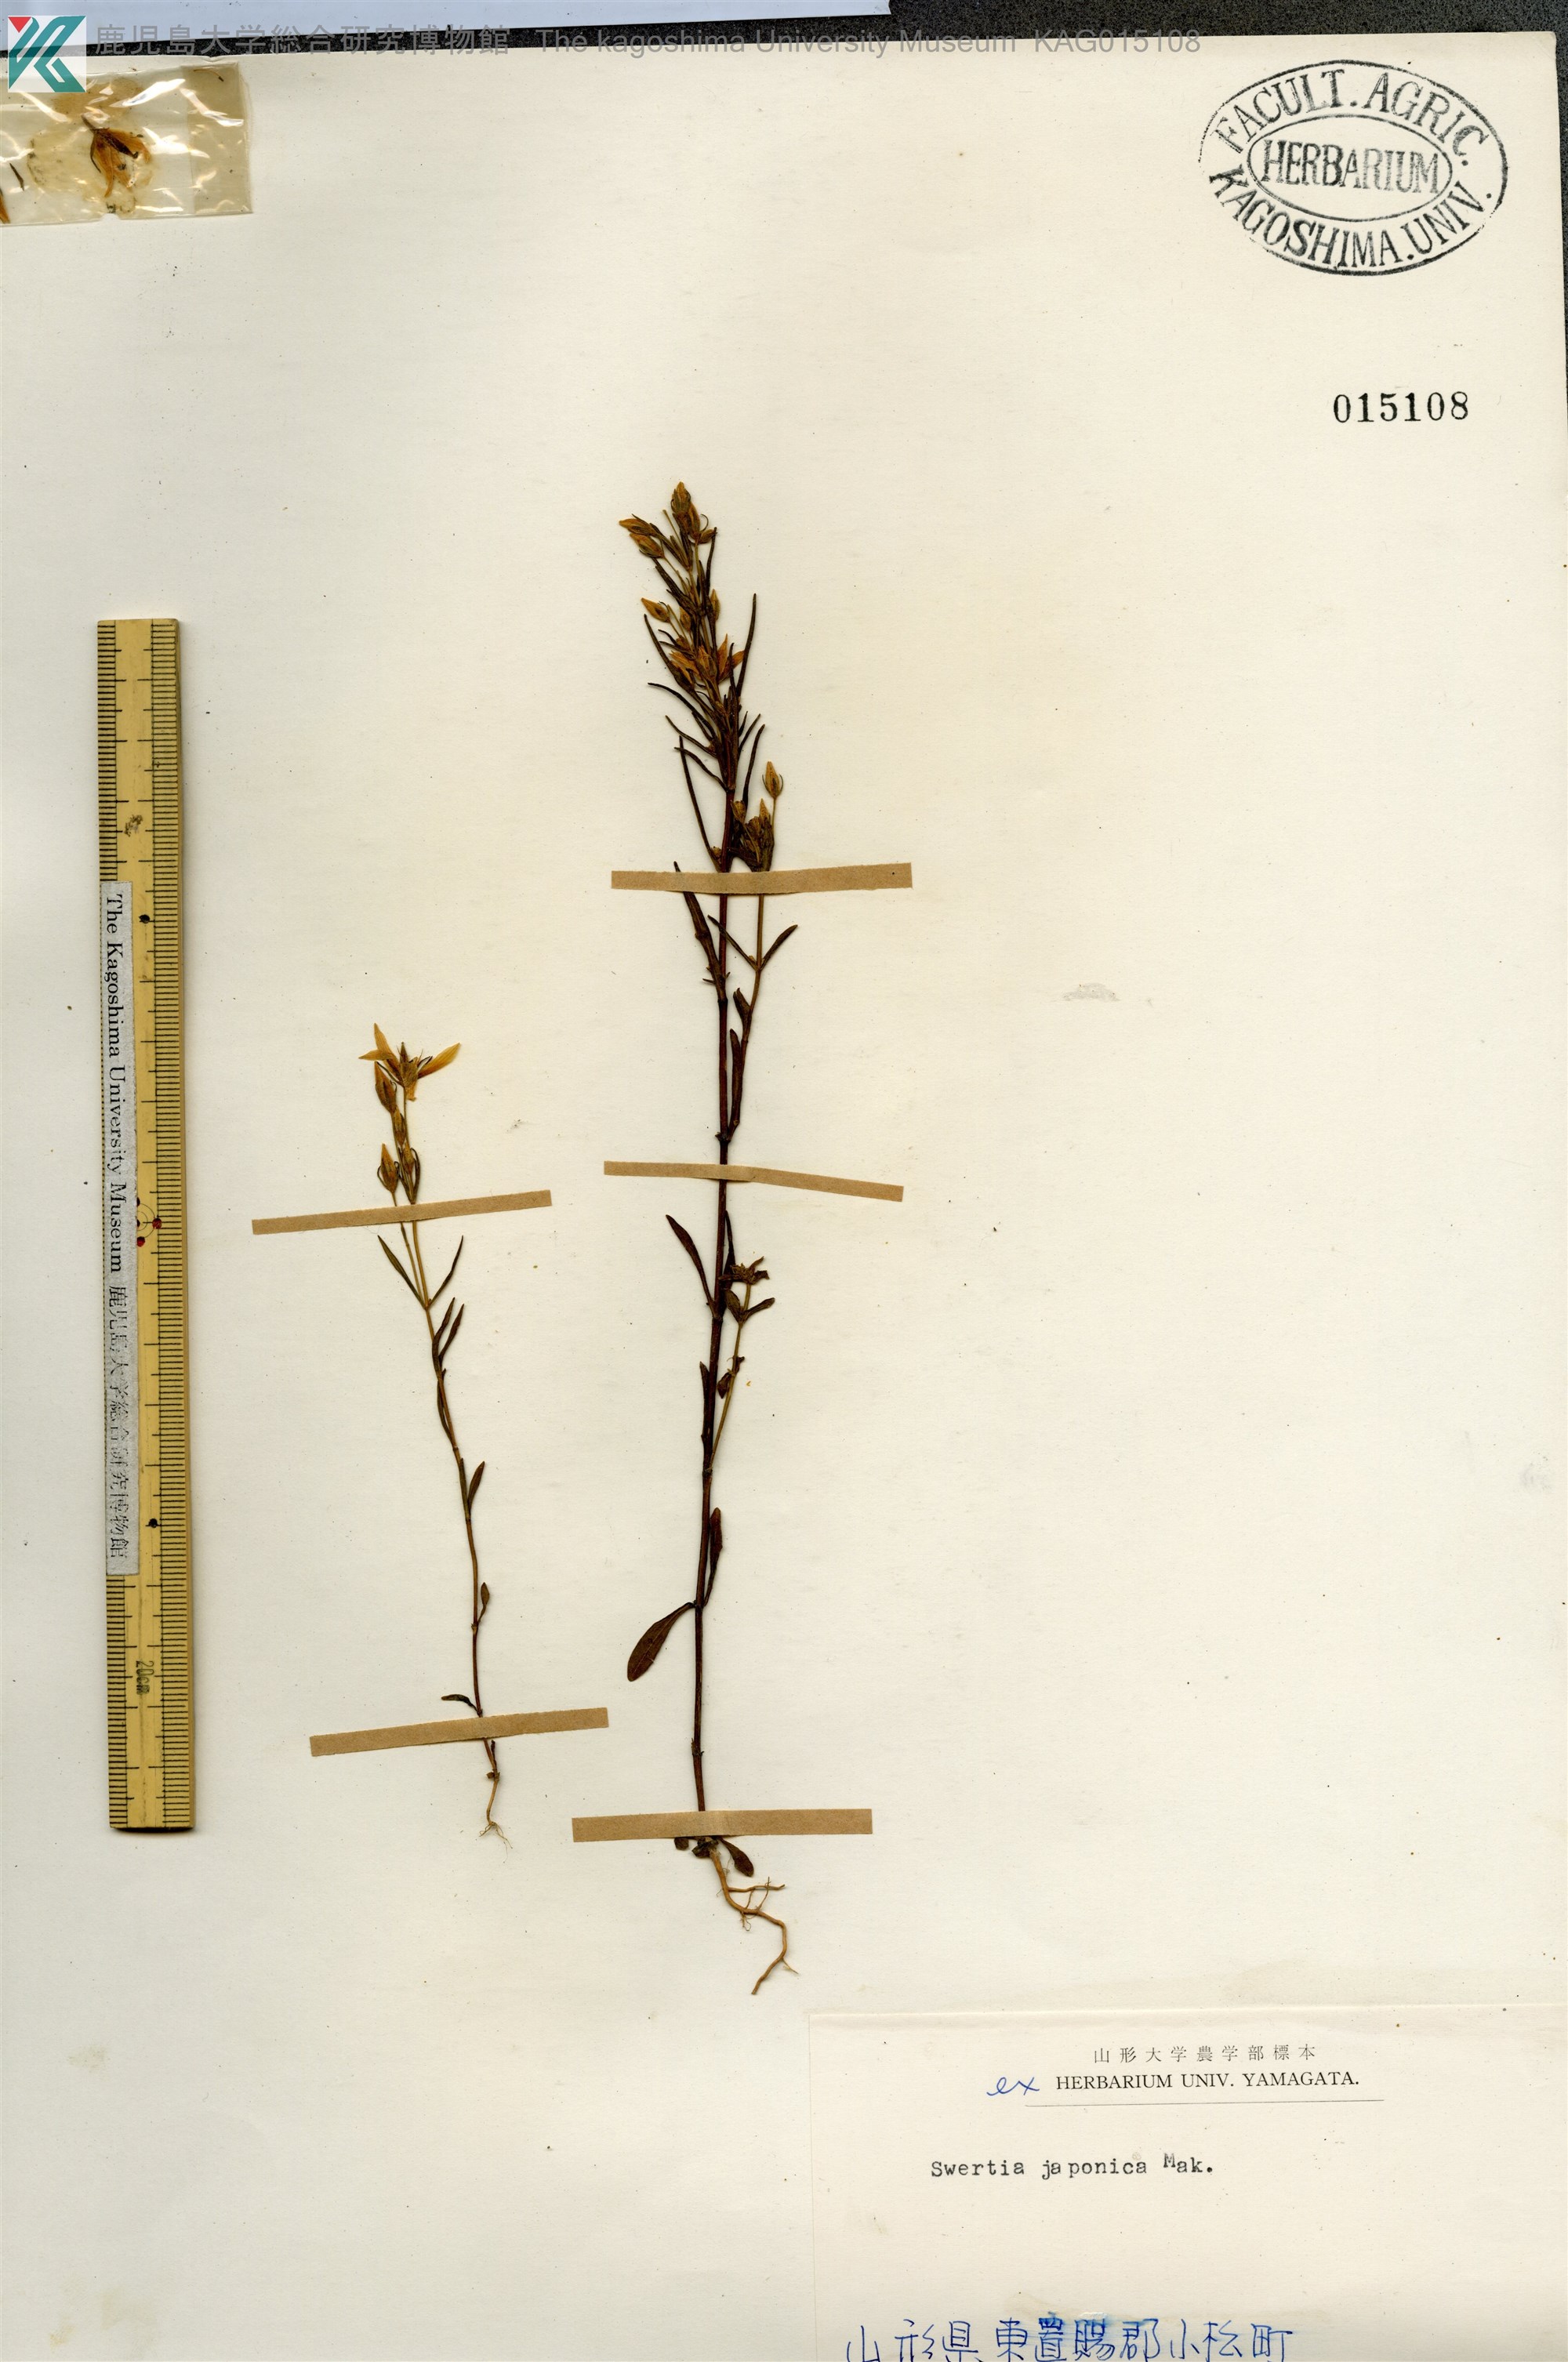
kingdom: Plantae
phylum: Tracheophyta
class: Magnoliopsida
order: Gentianales
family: Gentianaceae
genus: Swertia
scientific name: Swertia japonica
